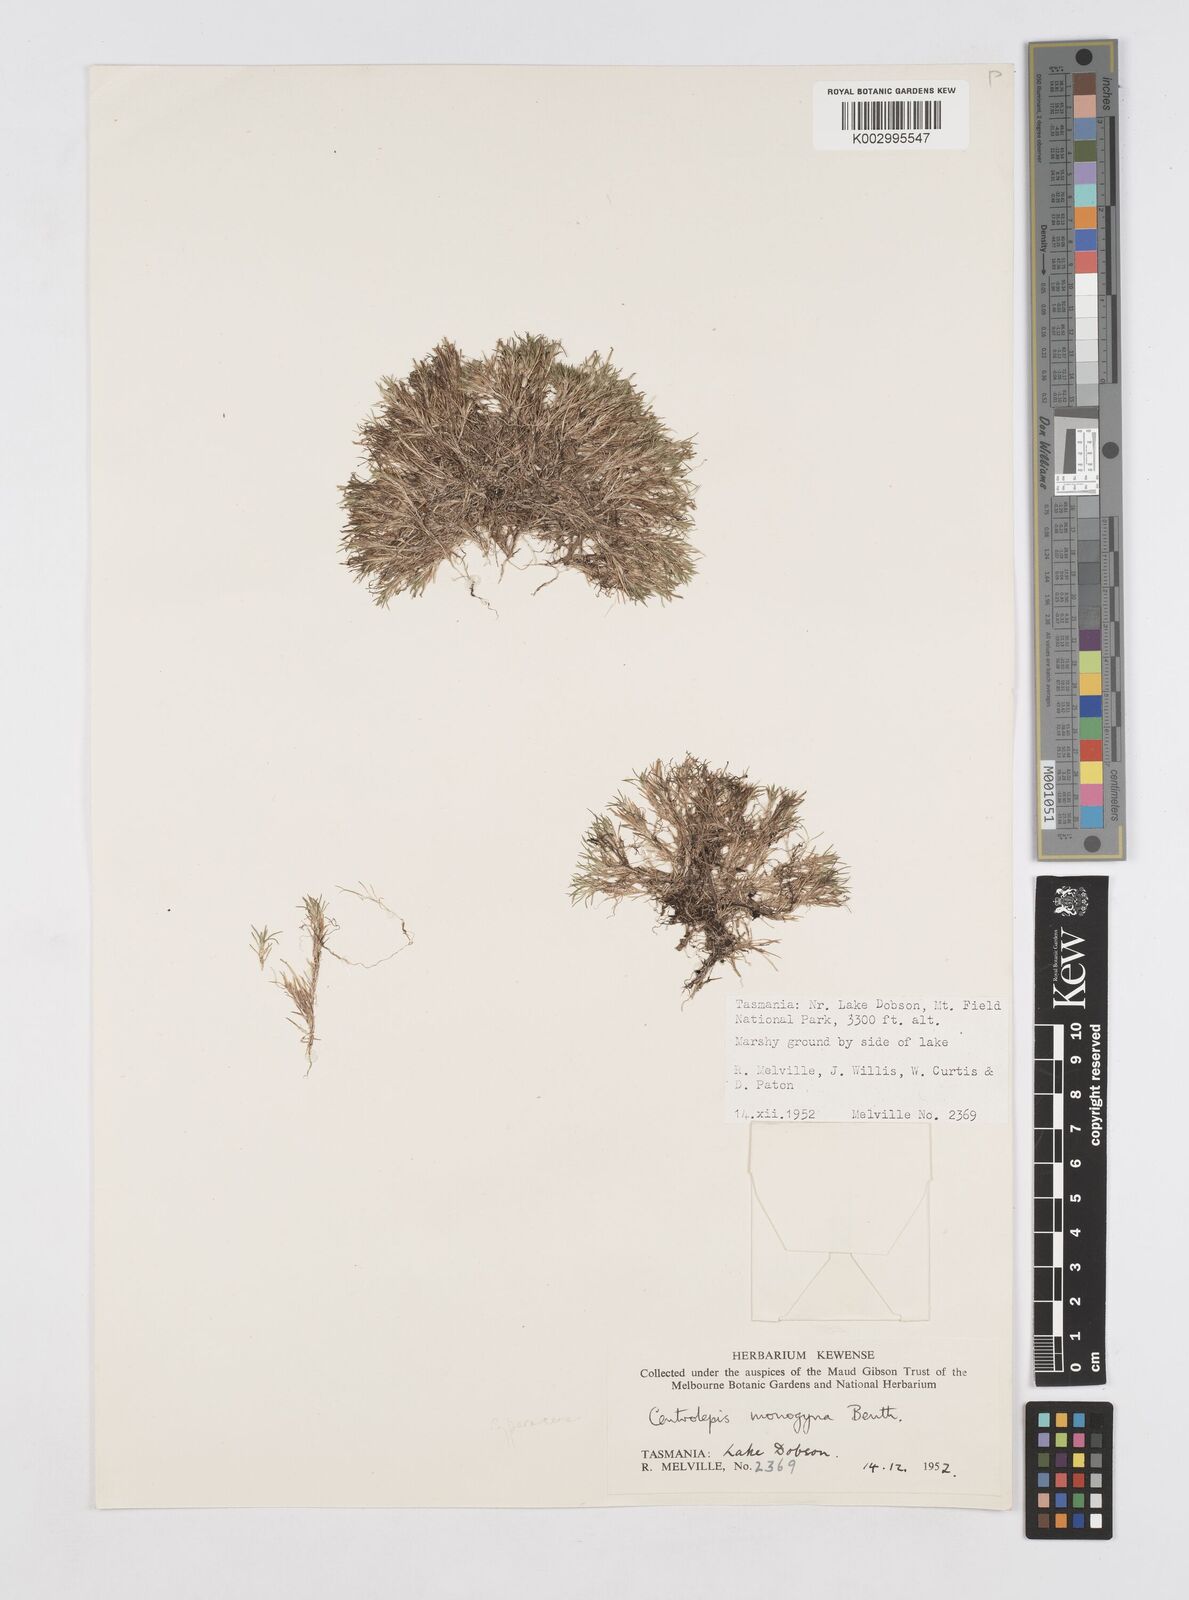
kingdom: Plantae
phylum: Tracheophyta
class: Liliopsida
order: Poales
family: Restionaceae
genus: Centrolepis
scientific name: Centrolepis monogyna
